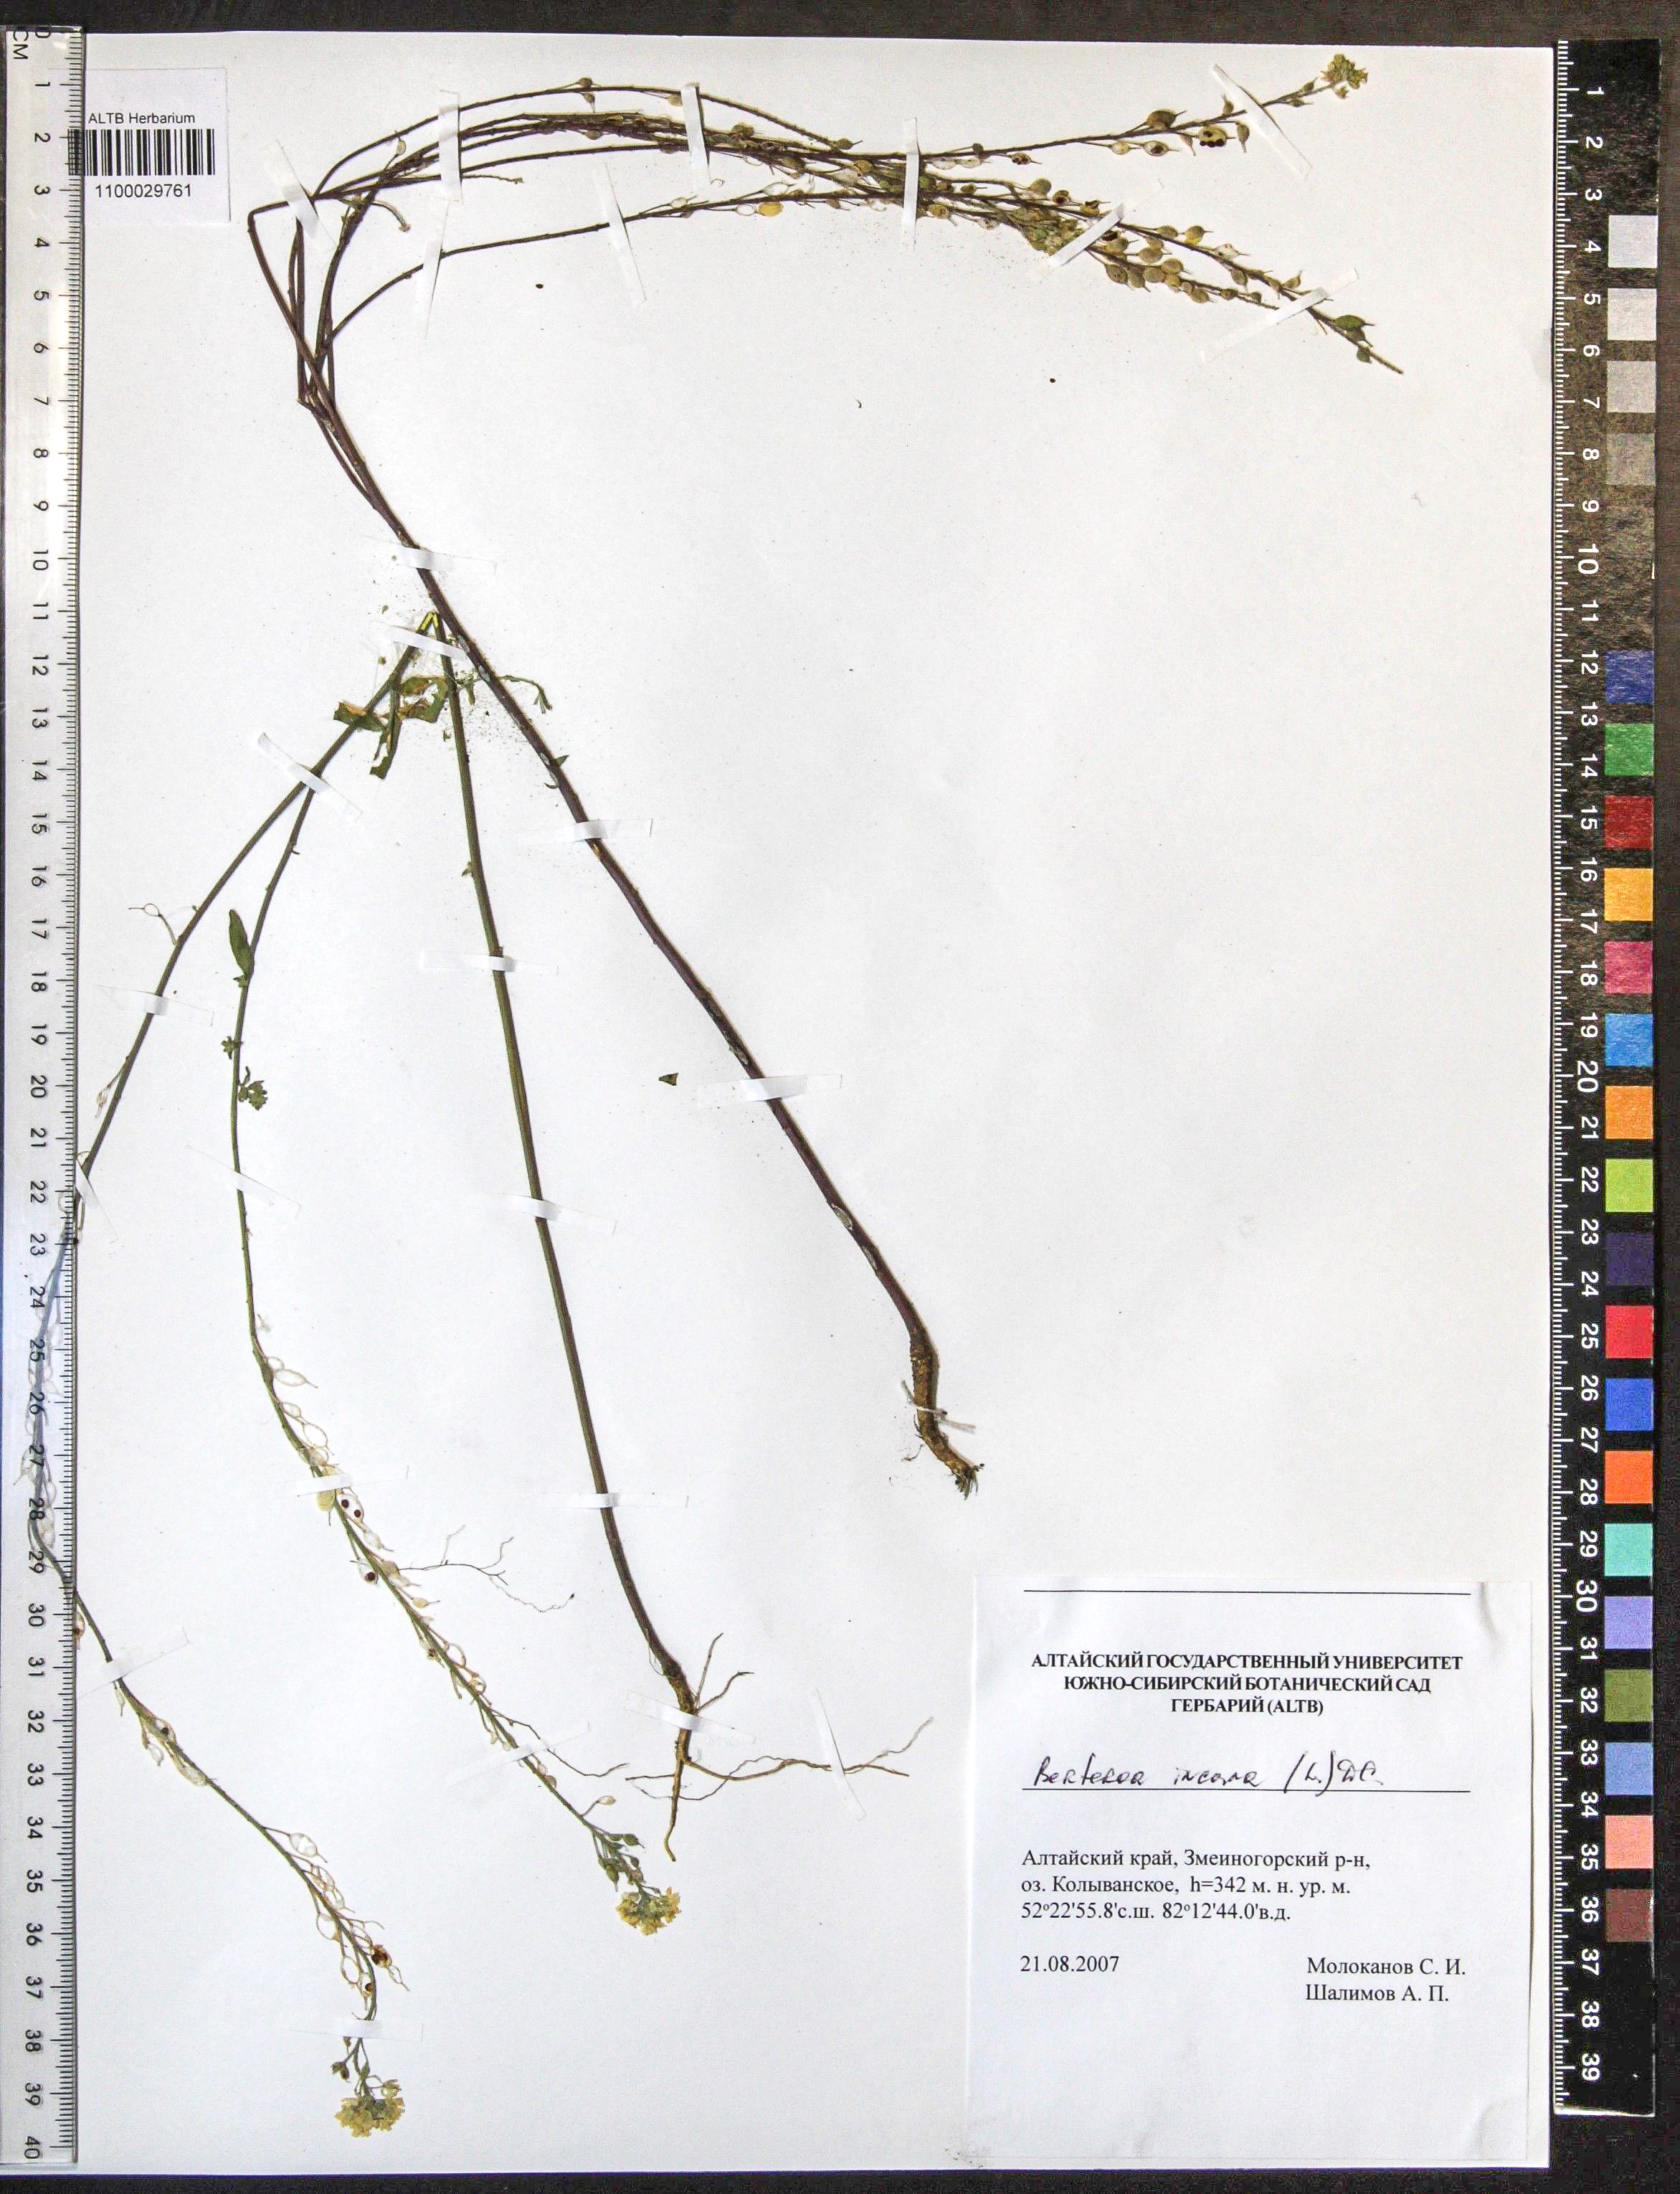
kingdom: Plantae
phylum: Tracheophyta
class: Magnoliopsida
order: Brassicales
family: Brassicaceae
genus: Berteroa
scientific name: Berteroa incana
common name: Hoary alison
